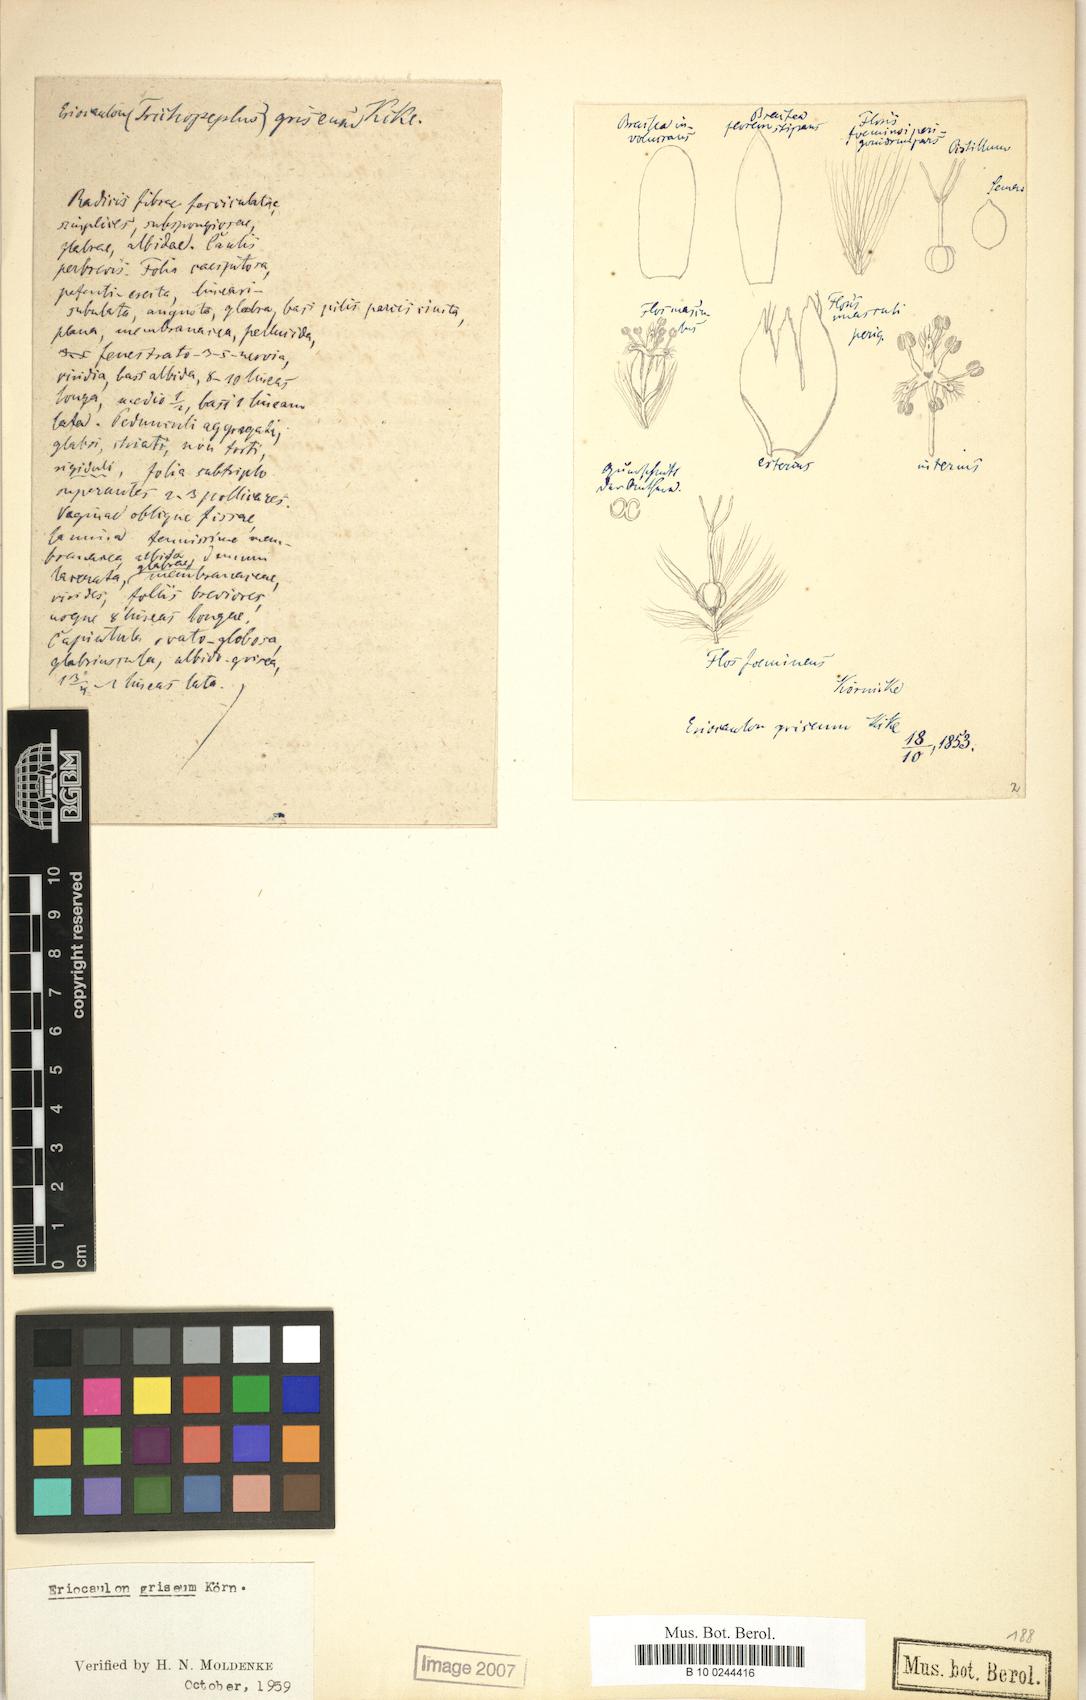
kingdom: Plantae
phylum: Tracheophyta
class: Liliopsida
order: Poales
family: Eriocaulaceae
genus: Eriocaulon
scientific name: Eriocaulon griseum
